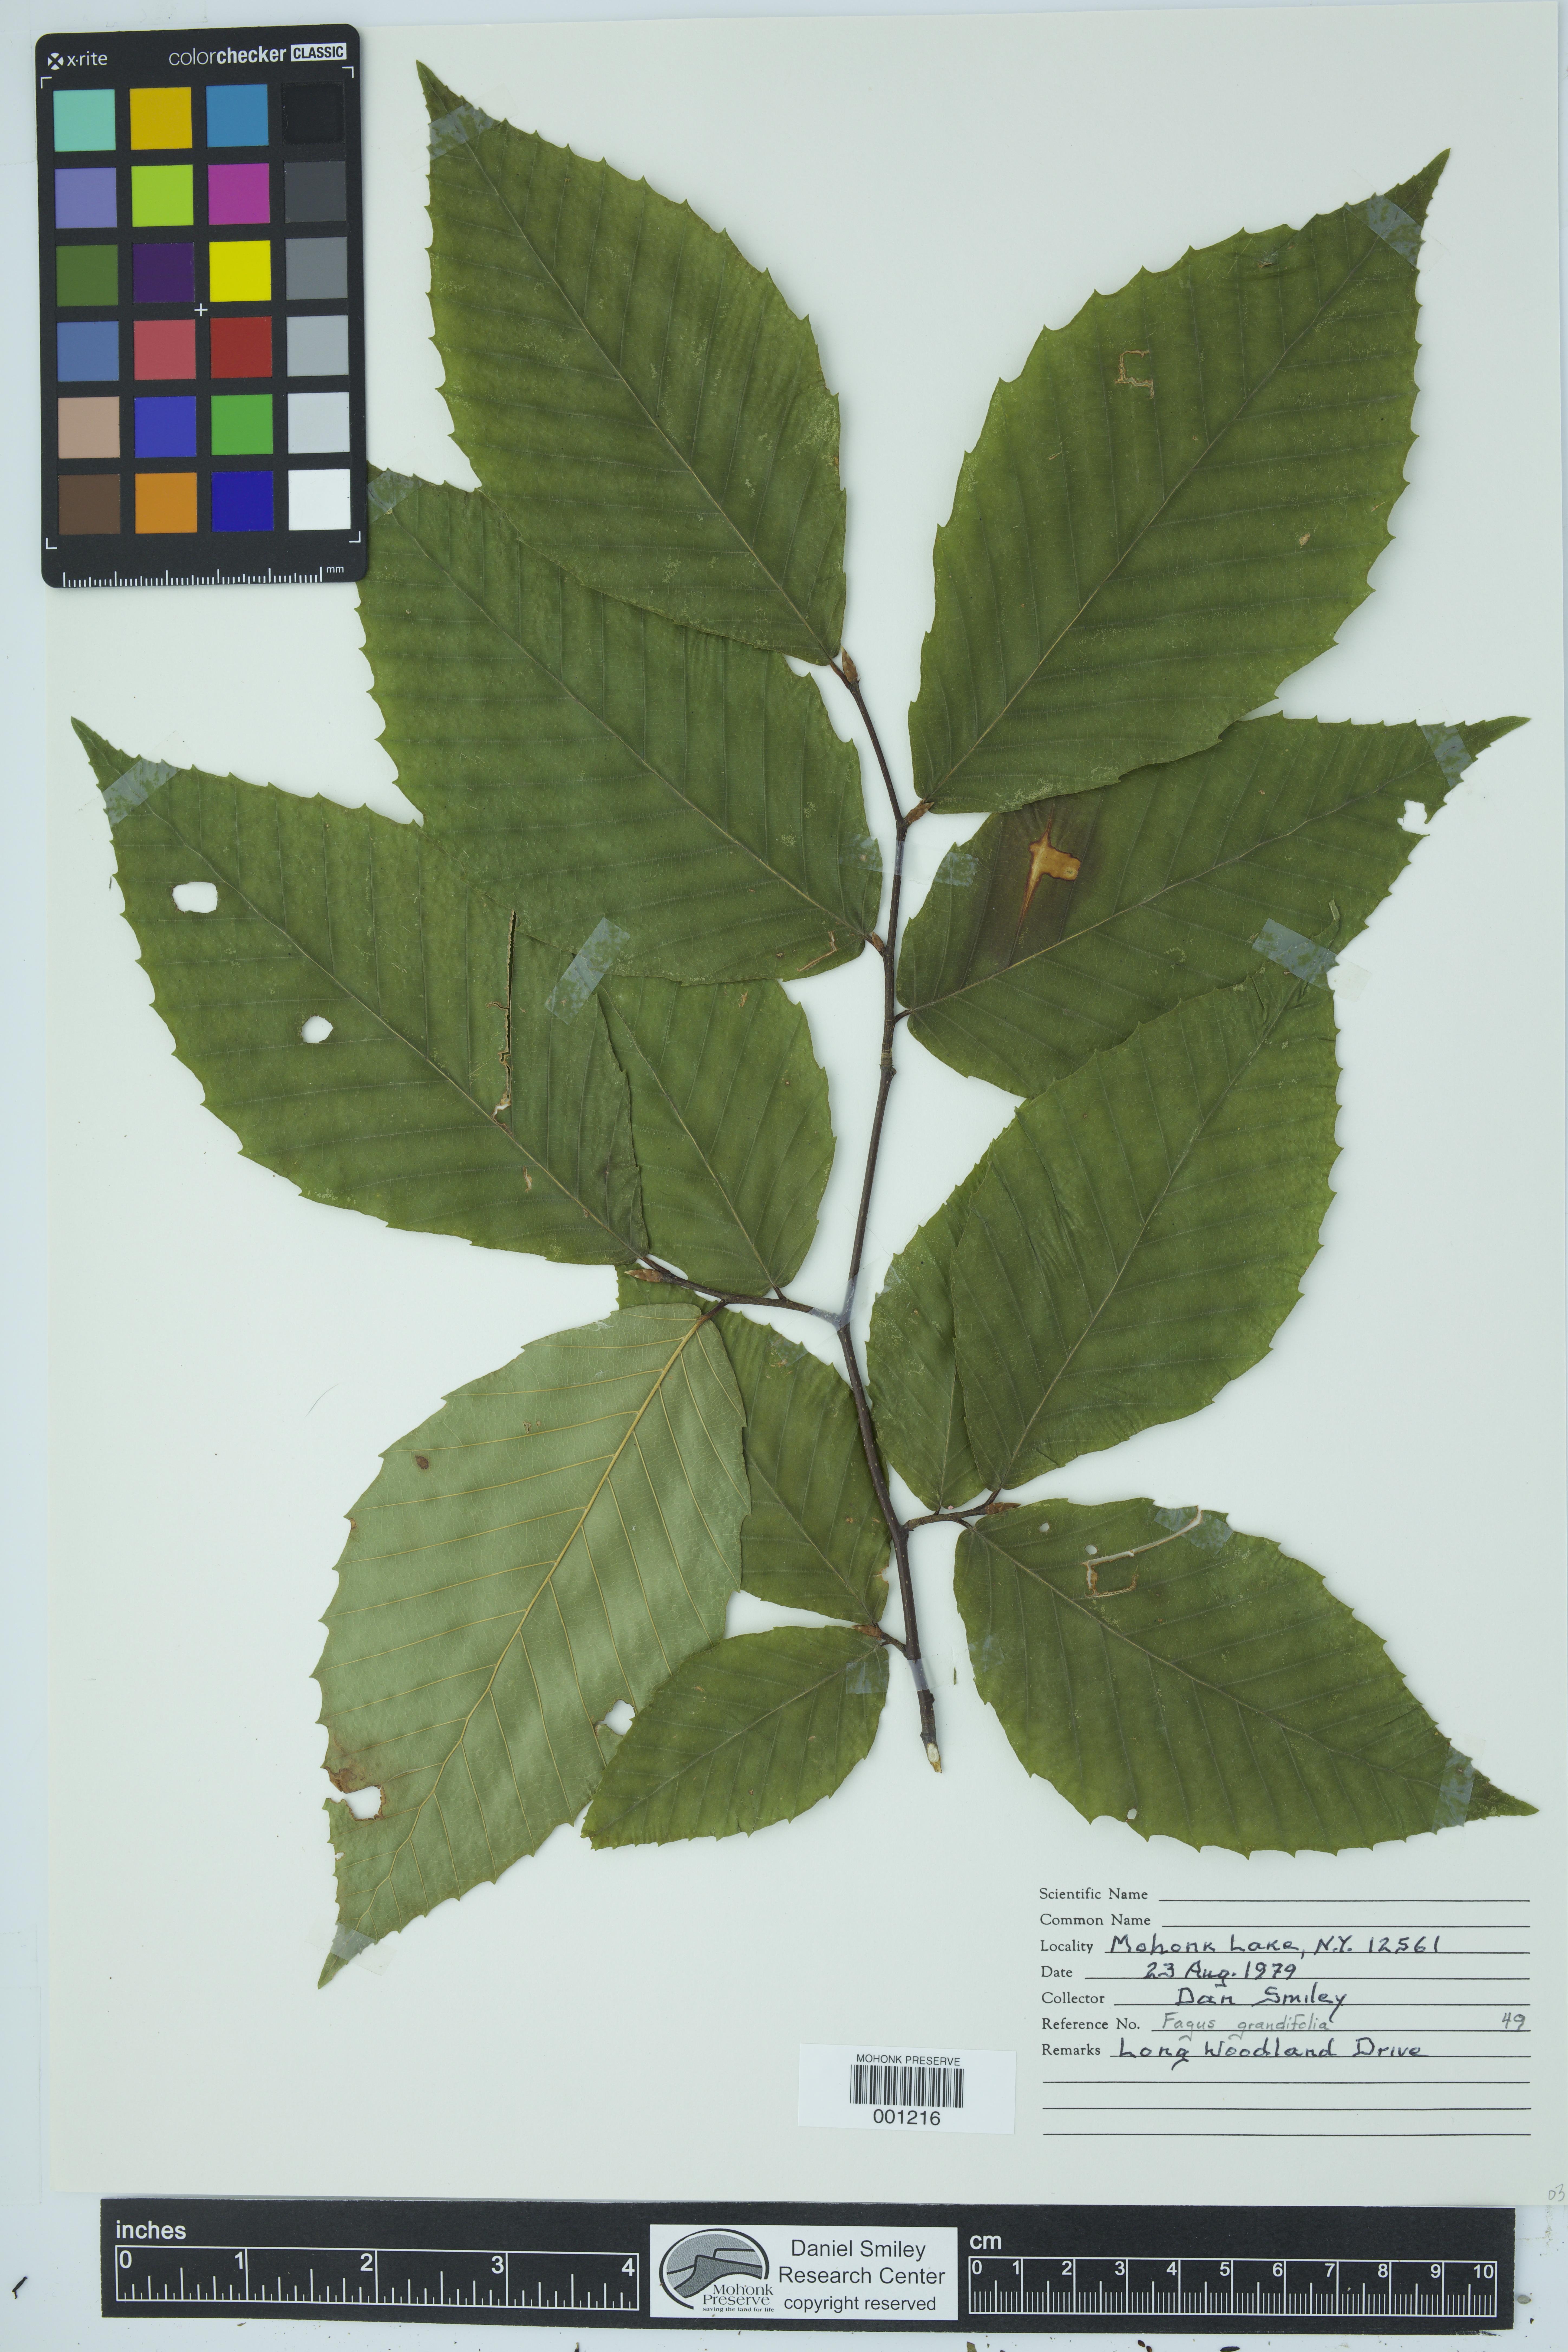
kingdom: Plantae
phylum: Tracheophyta
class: Magnoliopsida
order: Fagales
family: Fagaceae
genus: Fagus
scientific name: Fagus grandifolia
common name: American beech
